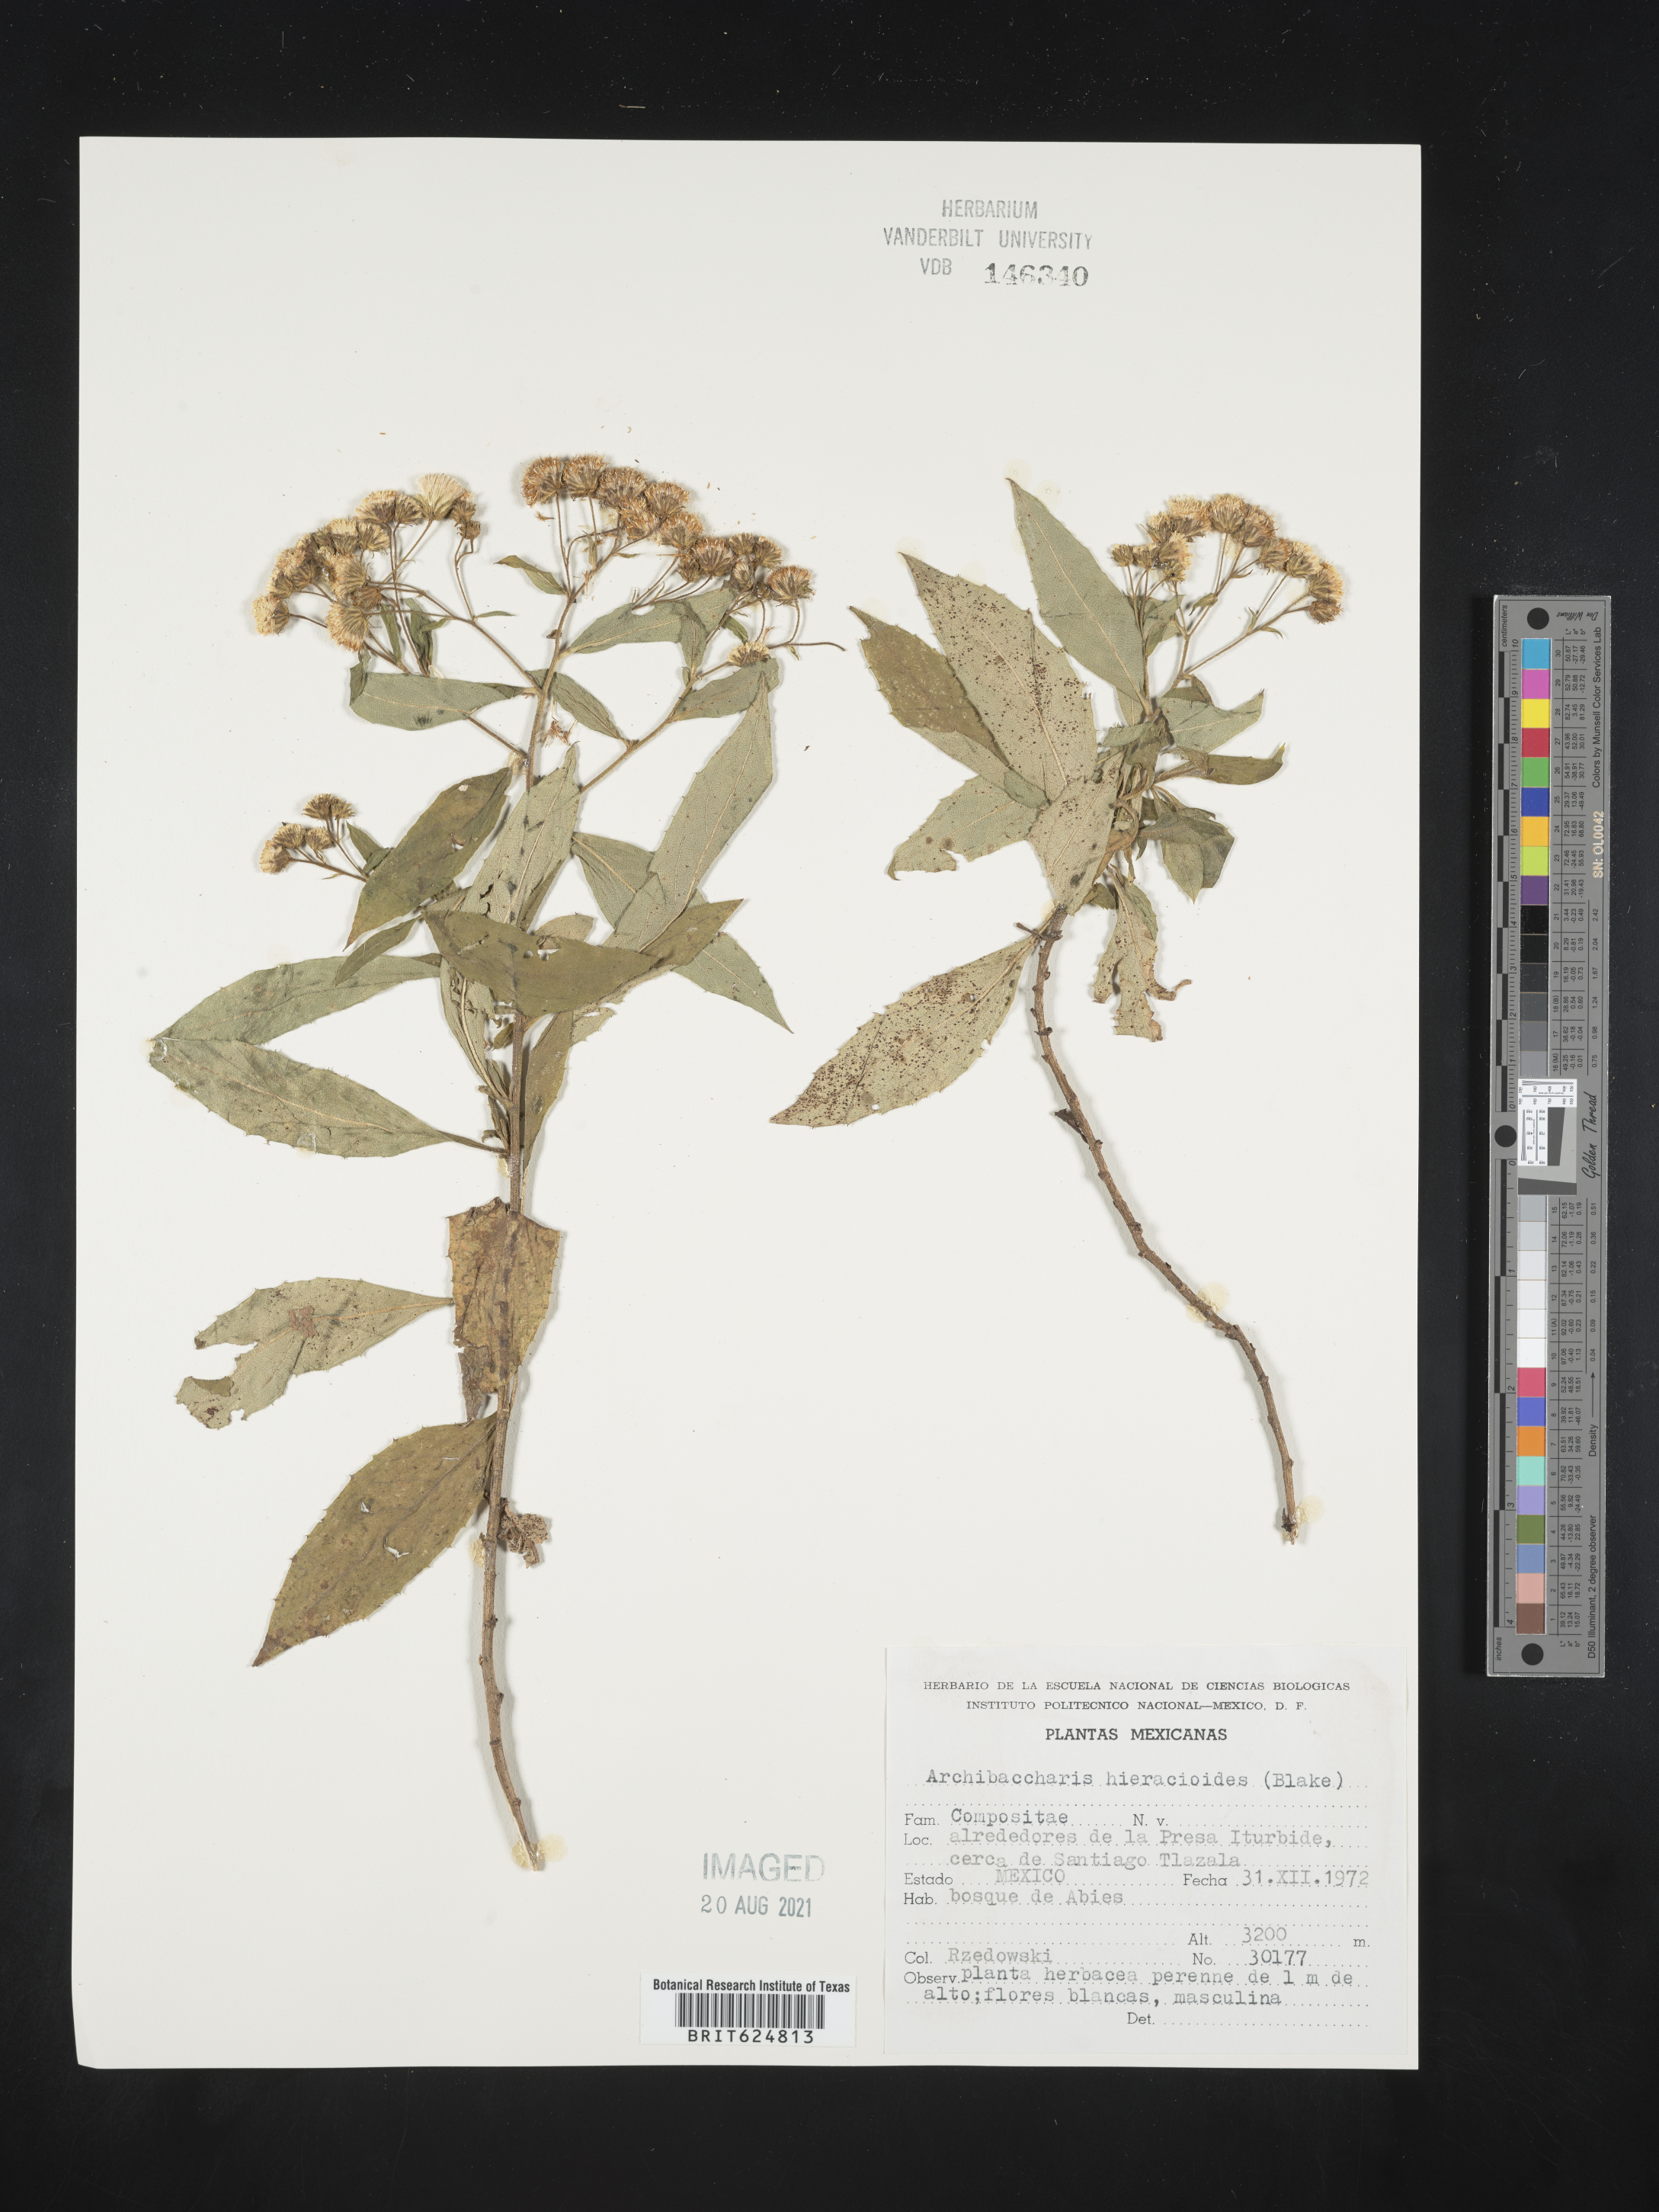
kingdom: Plantae
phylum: Tracheophyta
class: Magnoliopsida
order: Asterales
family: Asteraceae
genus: Archibaccharis
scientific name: Archibaccharis
